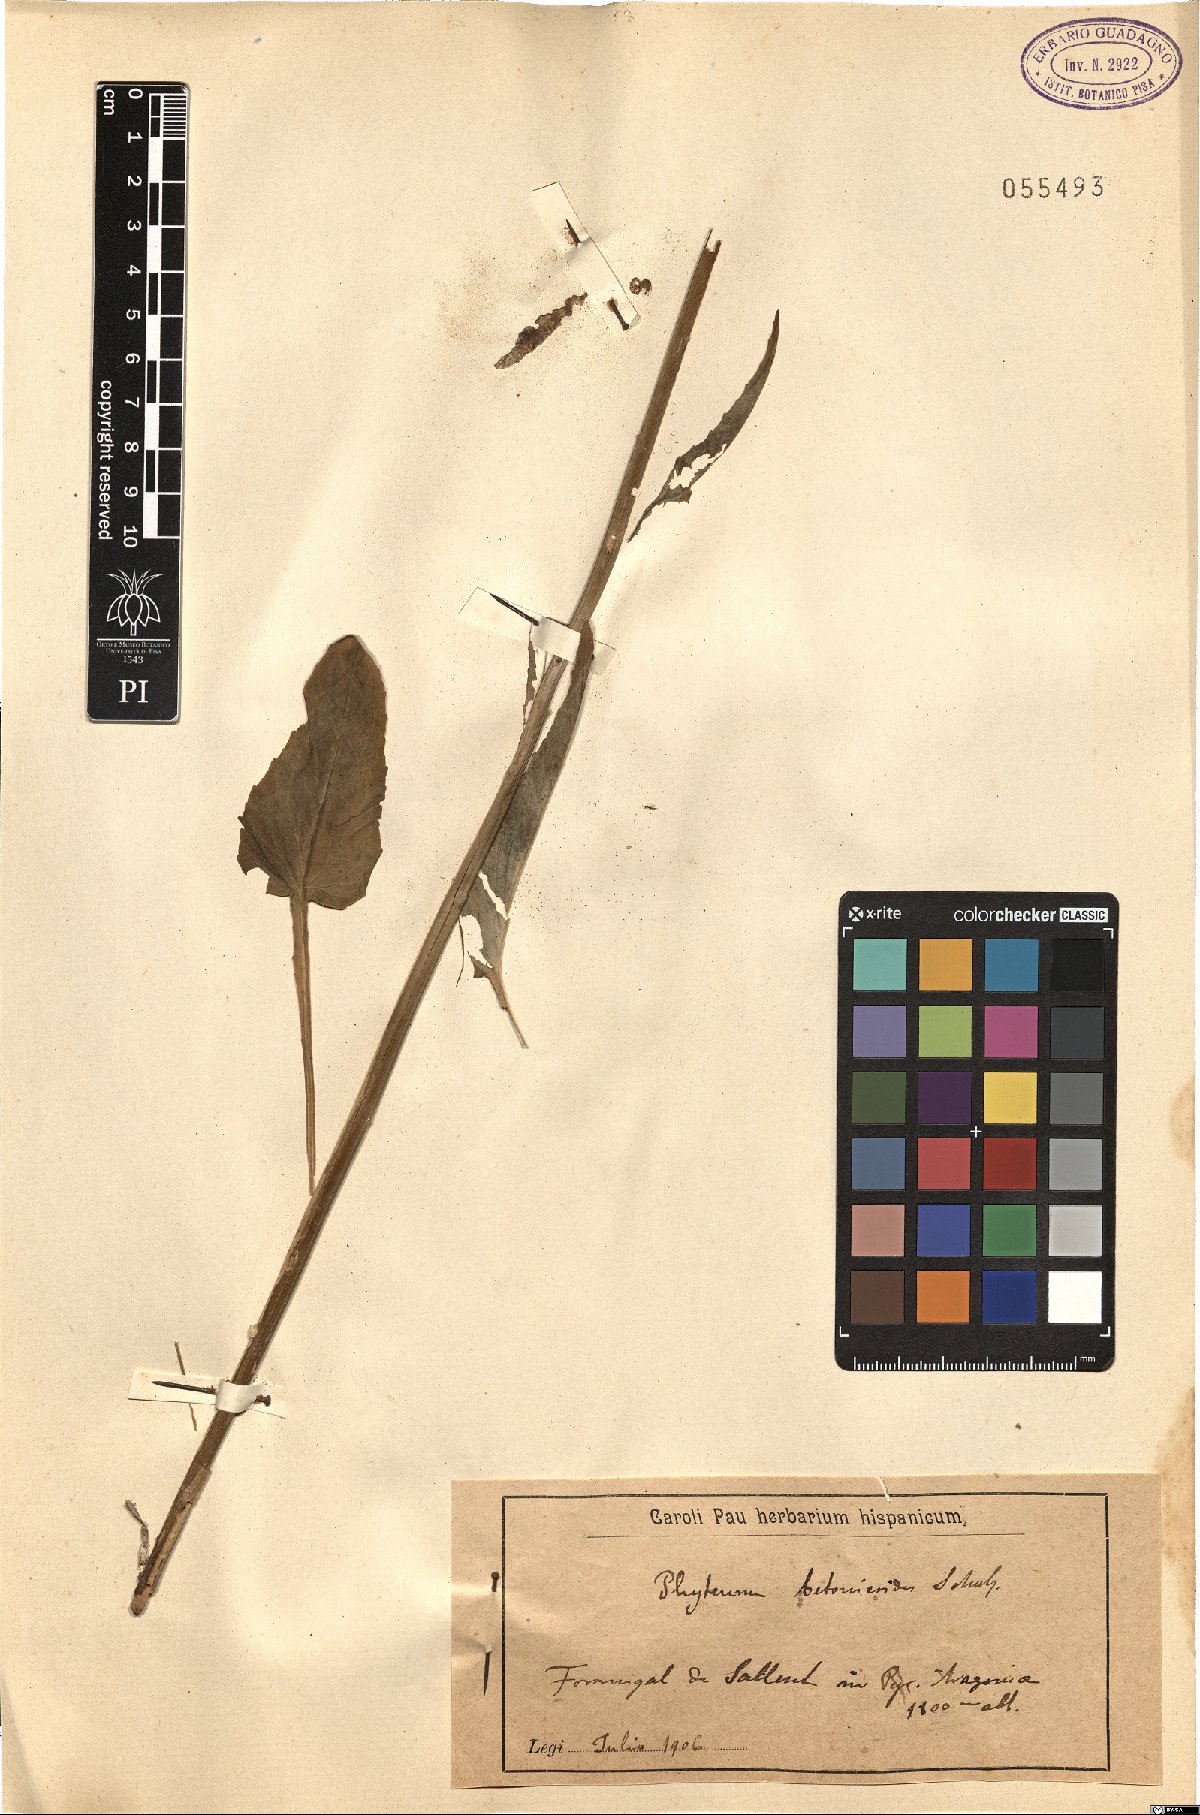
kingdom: Plantae
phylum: Tracheophyta
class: Magnoliopsida
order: Asterales
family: Campanulaceae
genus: Phyteuma
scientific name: Phyteuma betonicifolium
